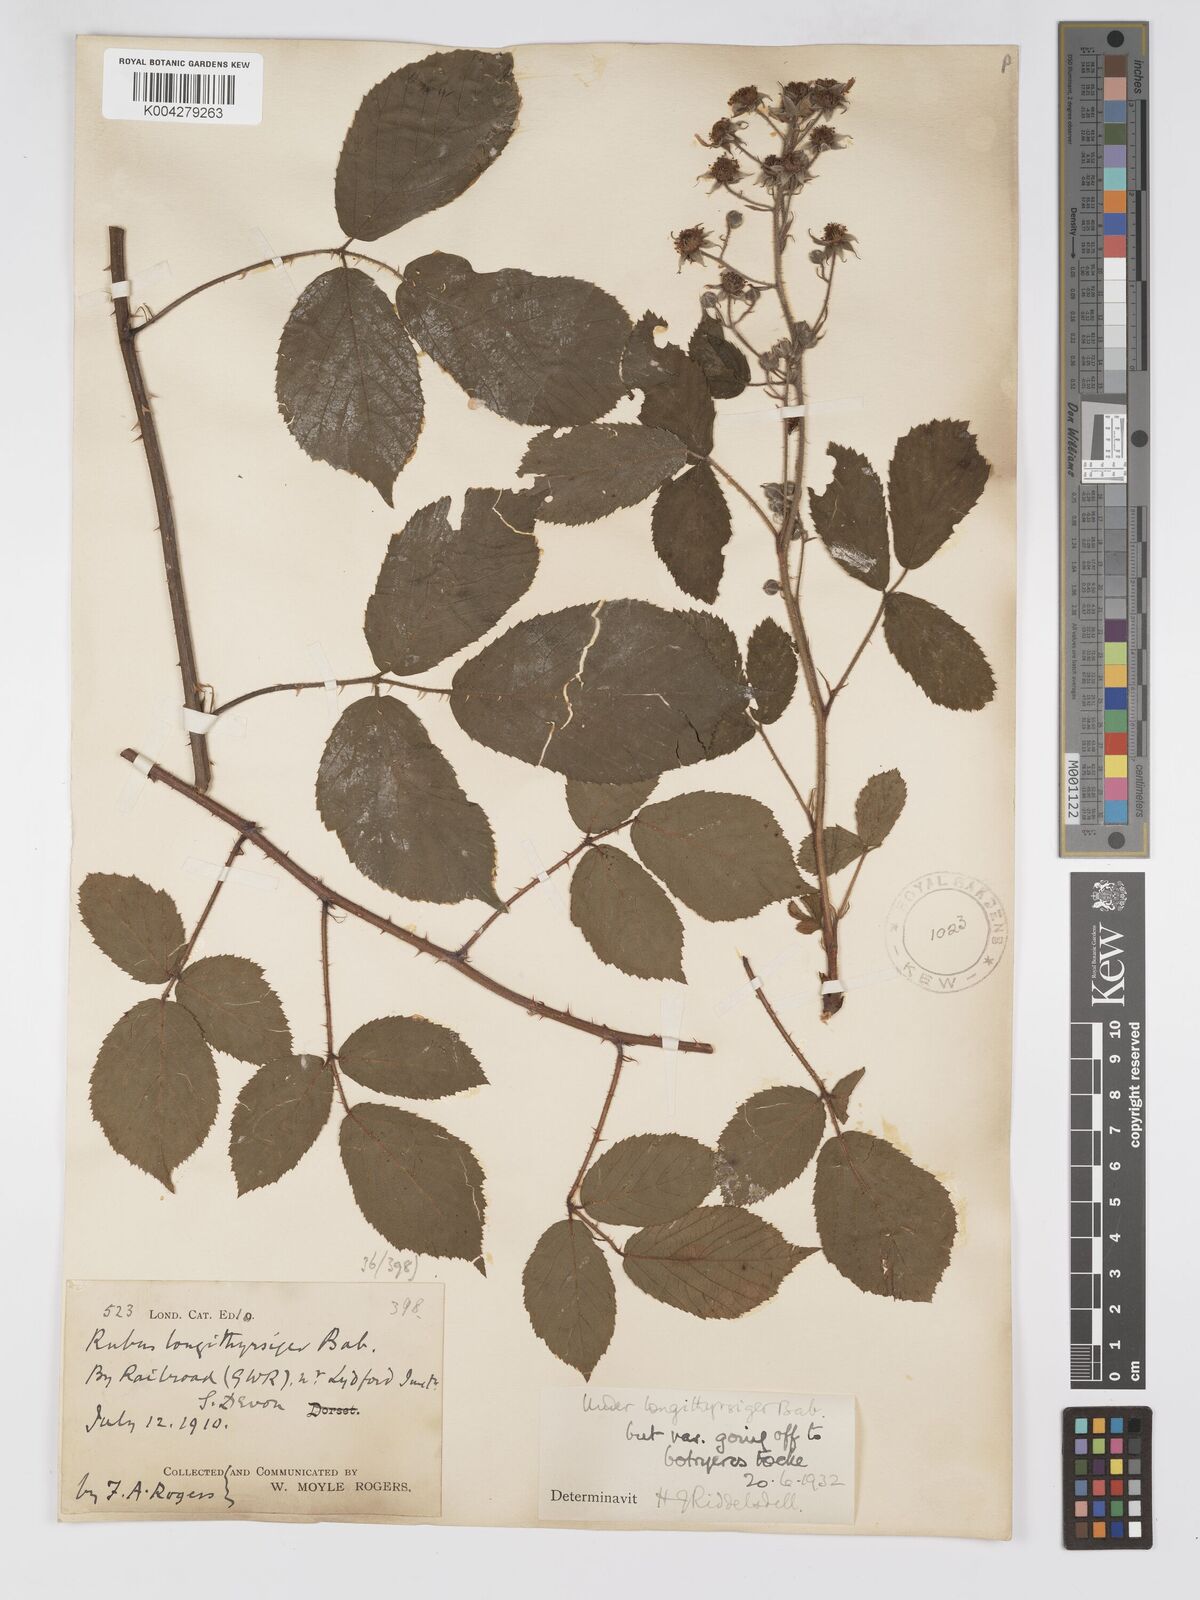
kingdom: Plantae
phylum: Tracheophyta
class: Magnoliopsida
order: Rosales
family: Rosaceae
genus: Rubus
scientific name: Rubus longithyrsiger
